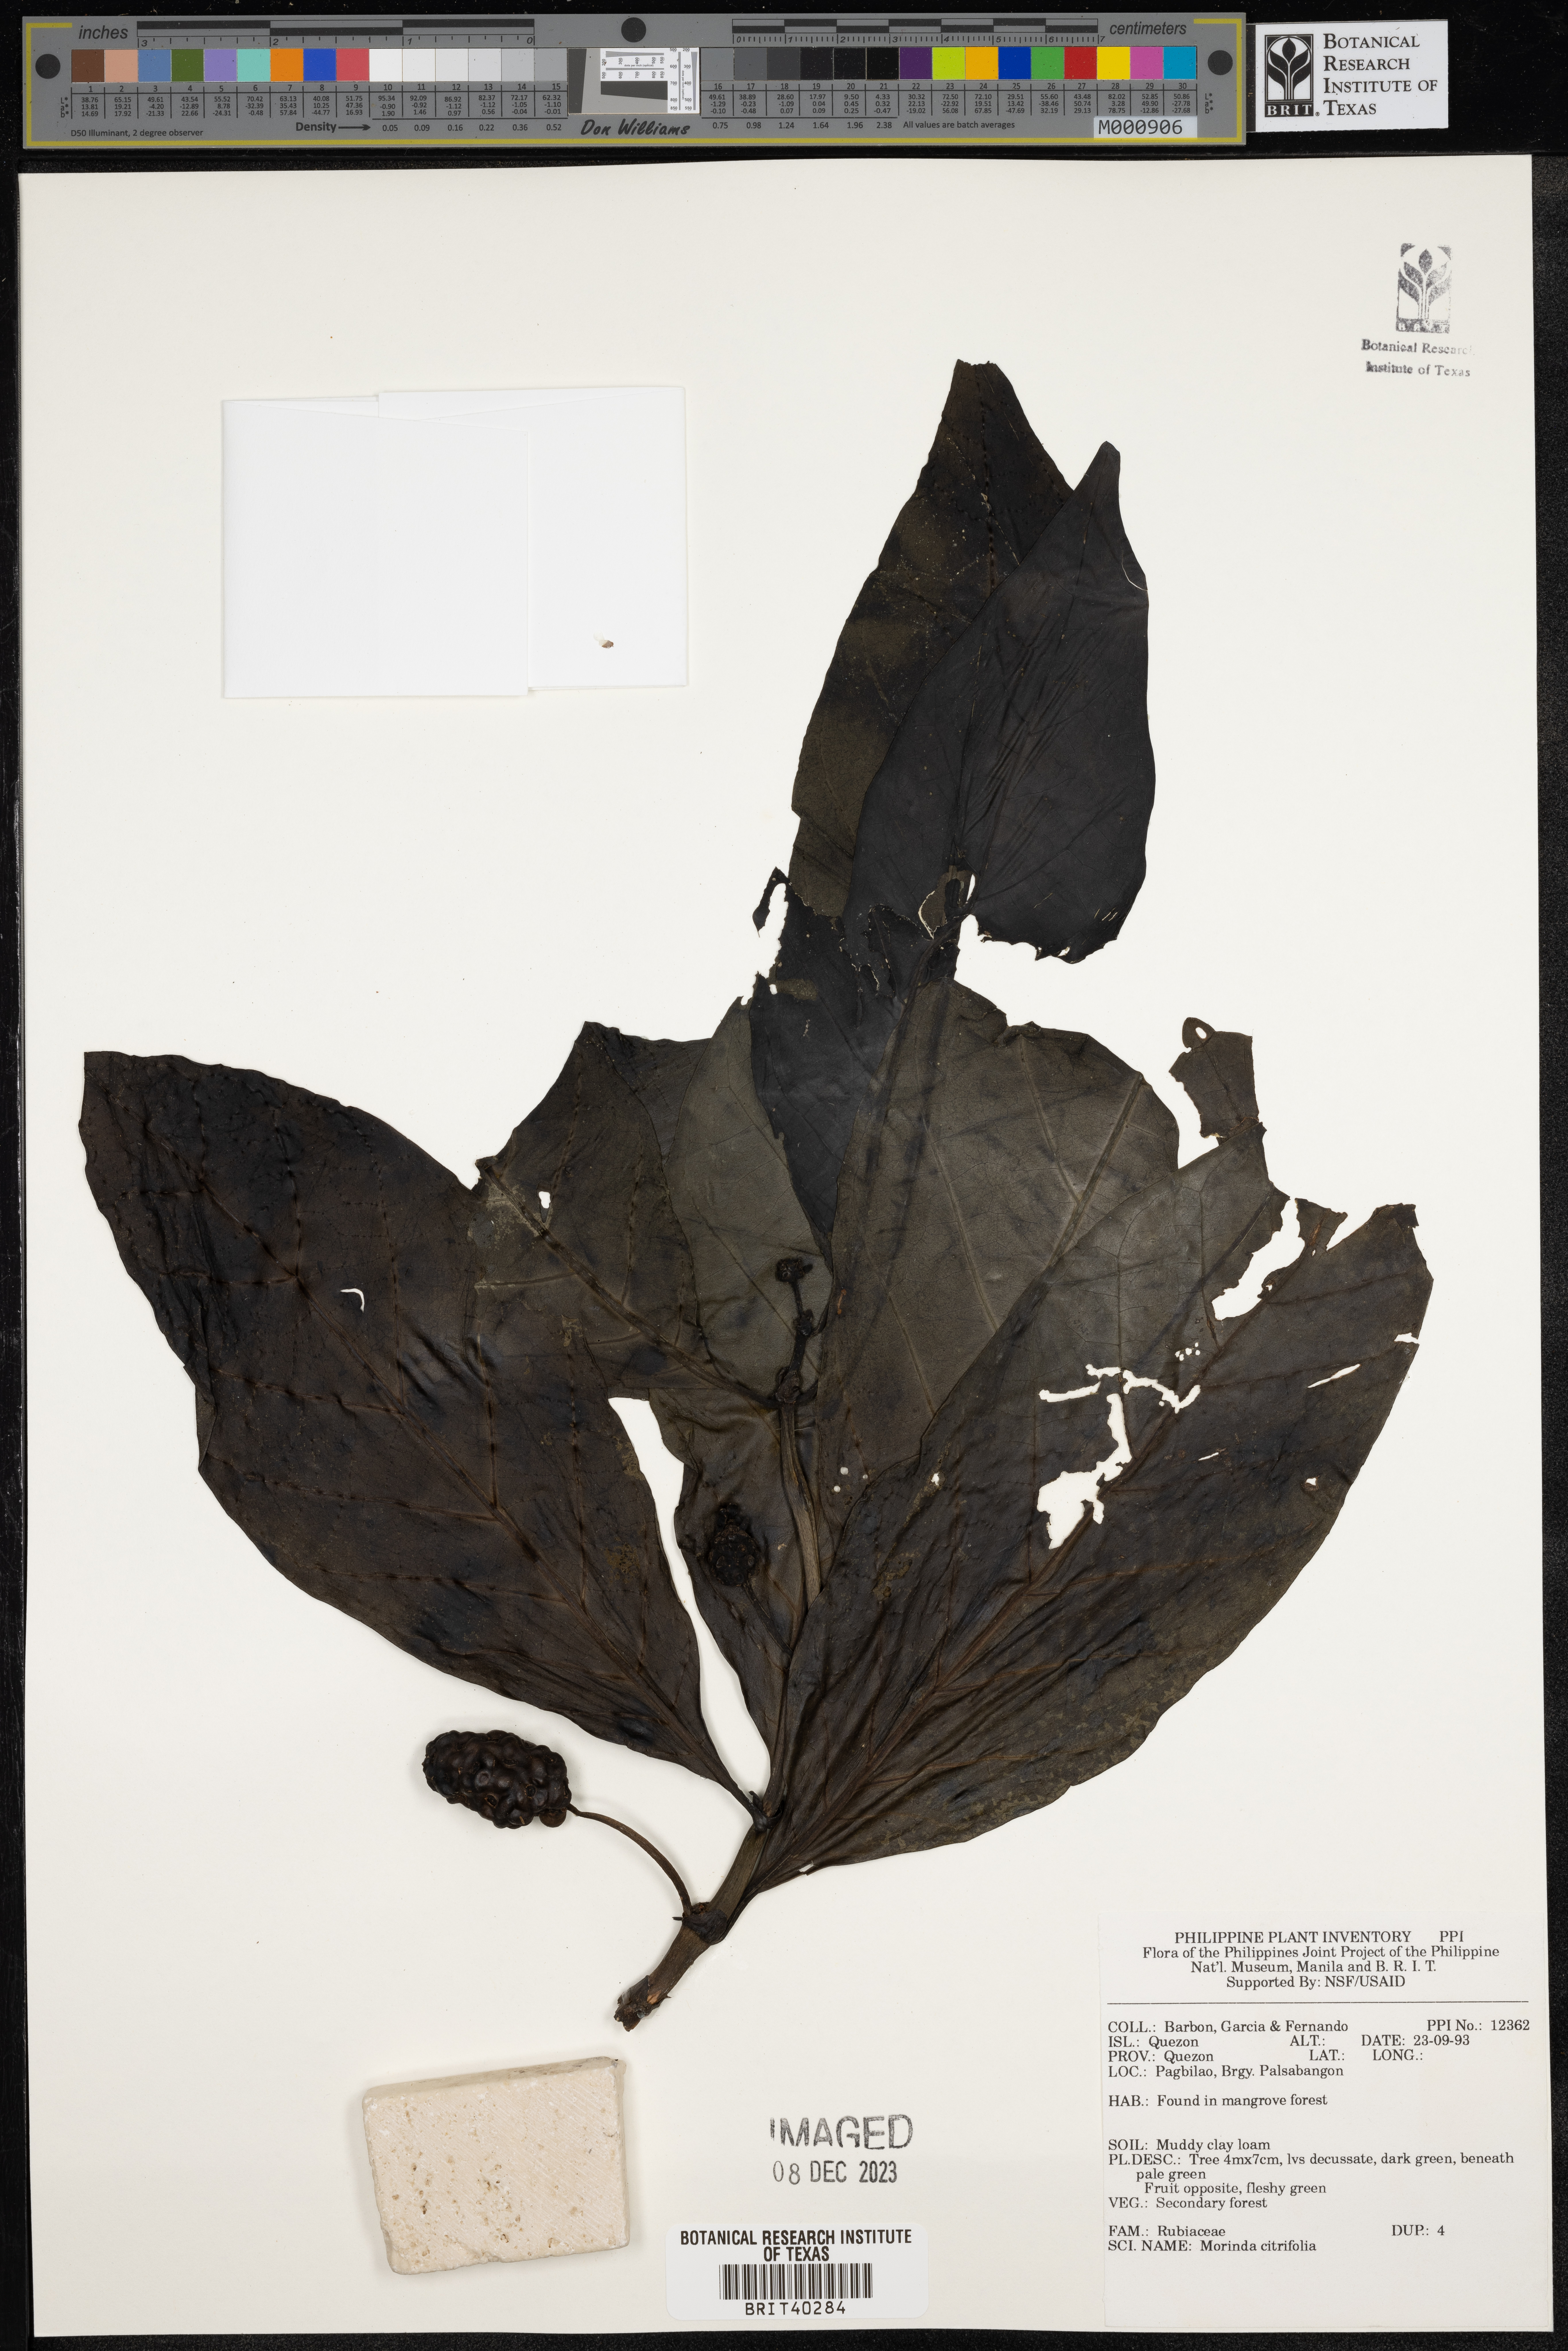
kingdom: Plantae
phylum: Tracheophyta
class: Magnoliopsida
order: Gentianales
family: Rubiaceae
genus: Morinda
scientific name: Morinda citrifolia
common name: Indian-mulberry
